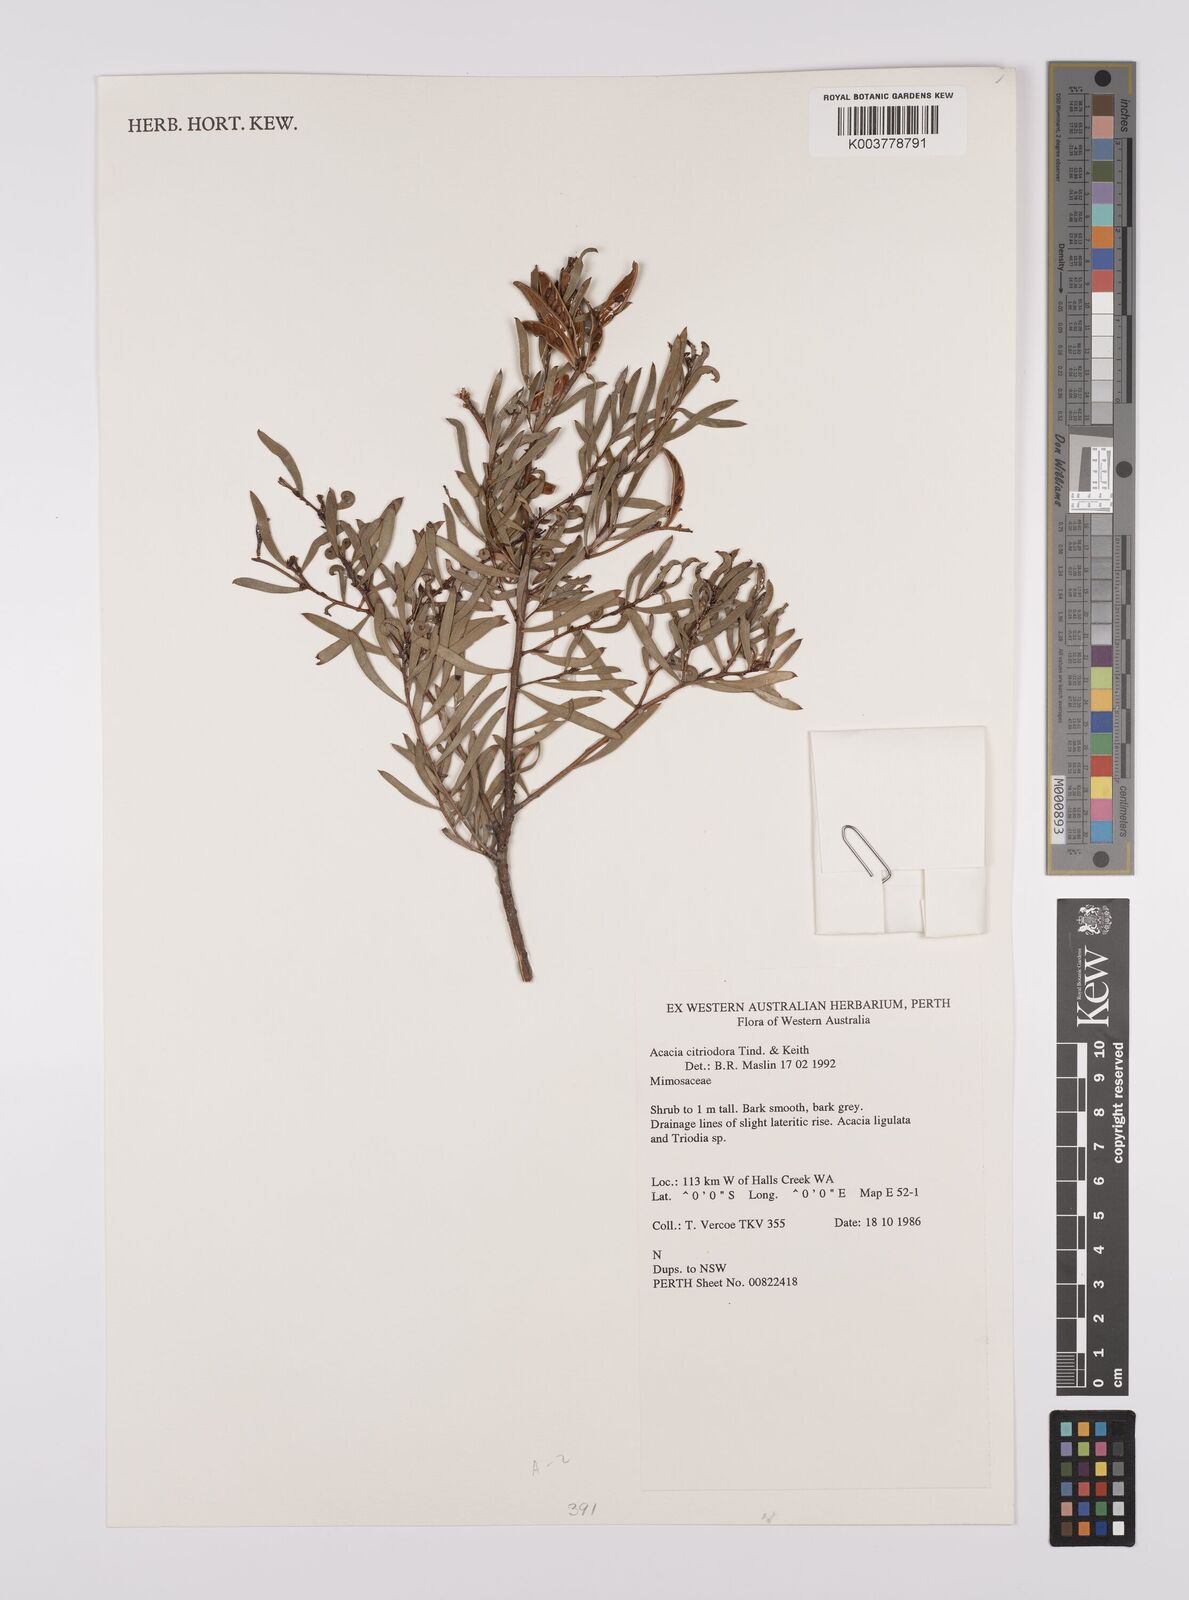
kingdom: Plantae
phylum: Tracheophyta
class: Magnoliopsida
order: Fabales
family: Fabaceae
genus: Acacia
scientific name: Acacia citriodora
